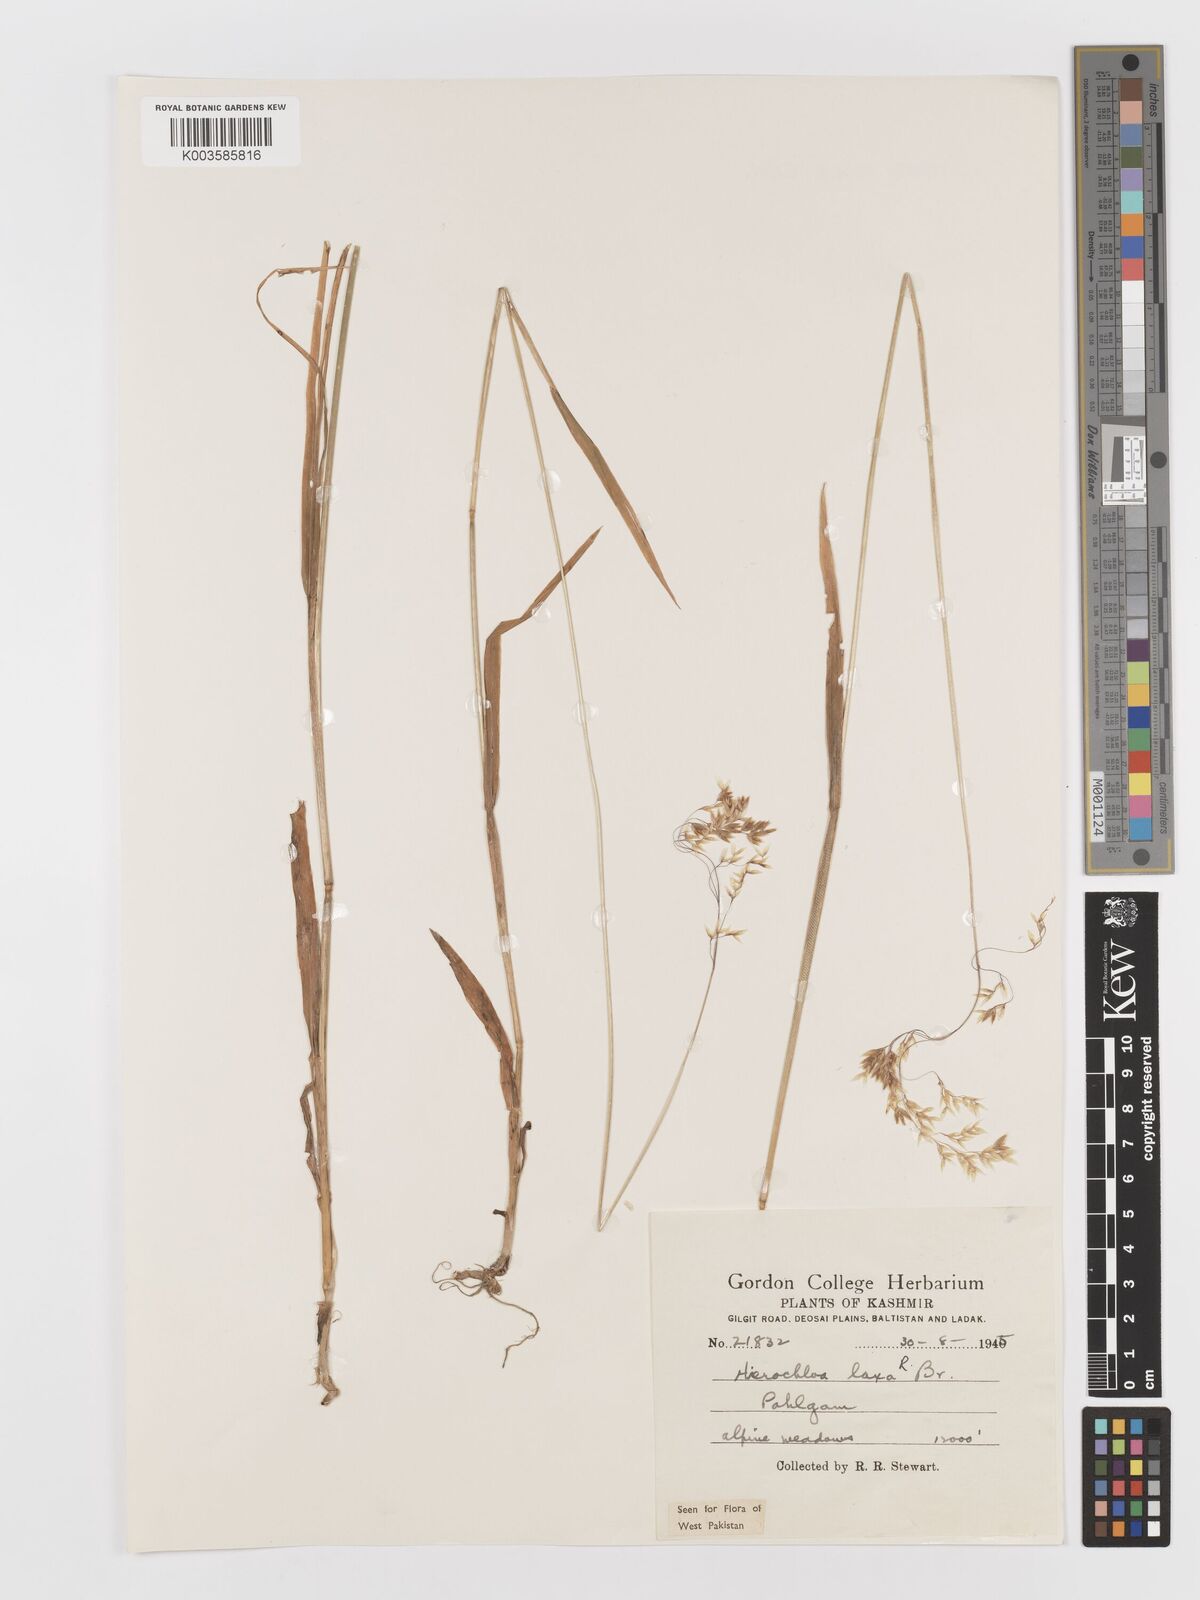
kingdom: Plantae
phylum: Tracheophyta
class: Liliopsida
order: Poales
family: Poaceae
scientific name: Poaceae
